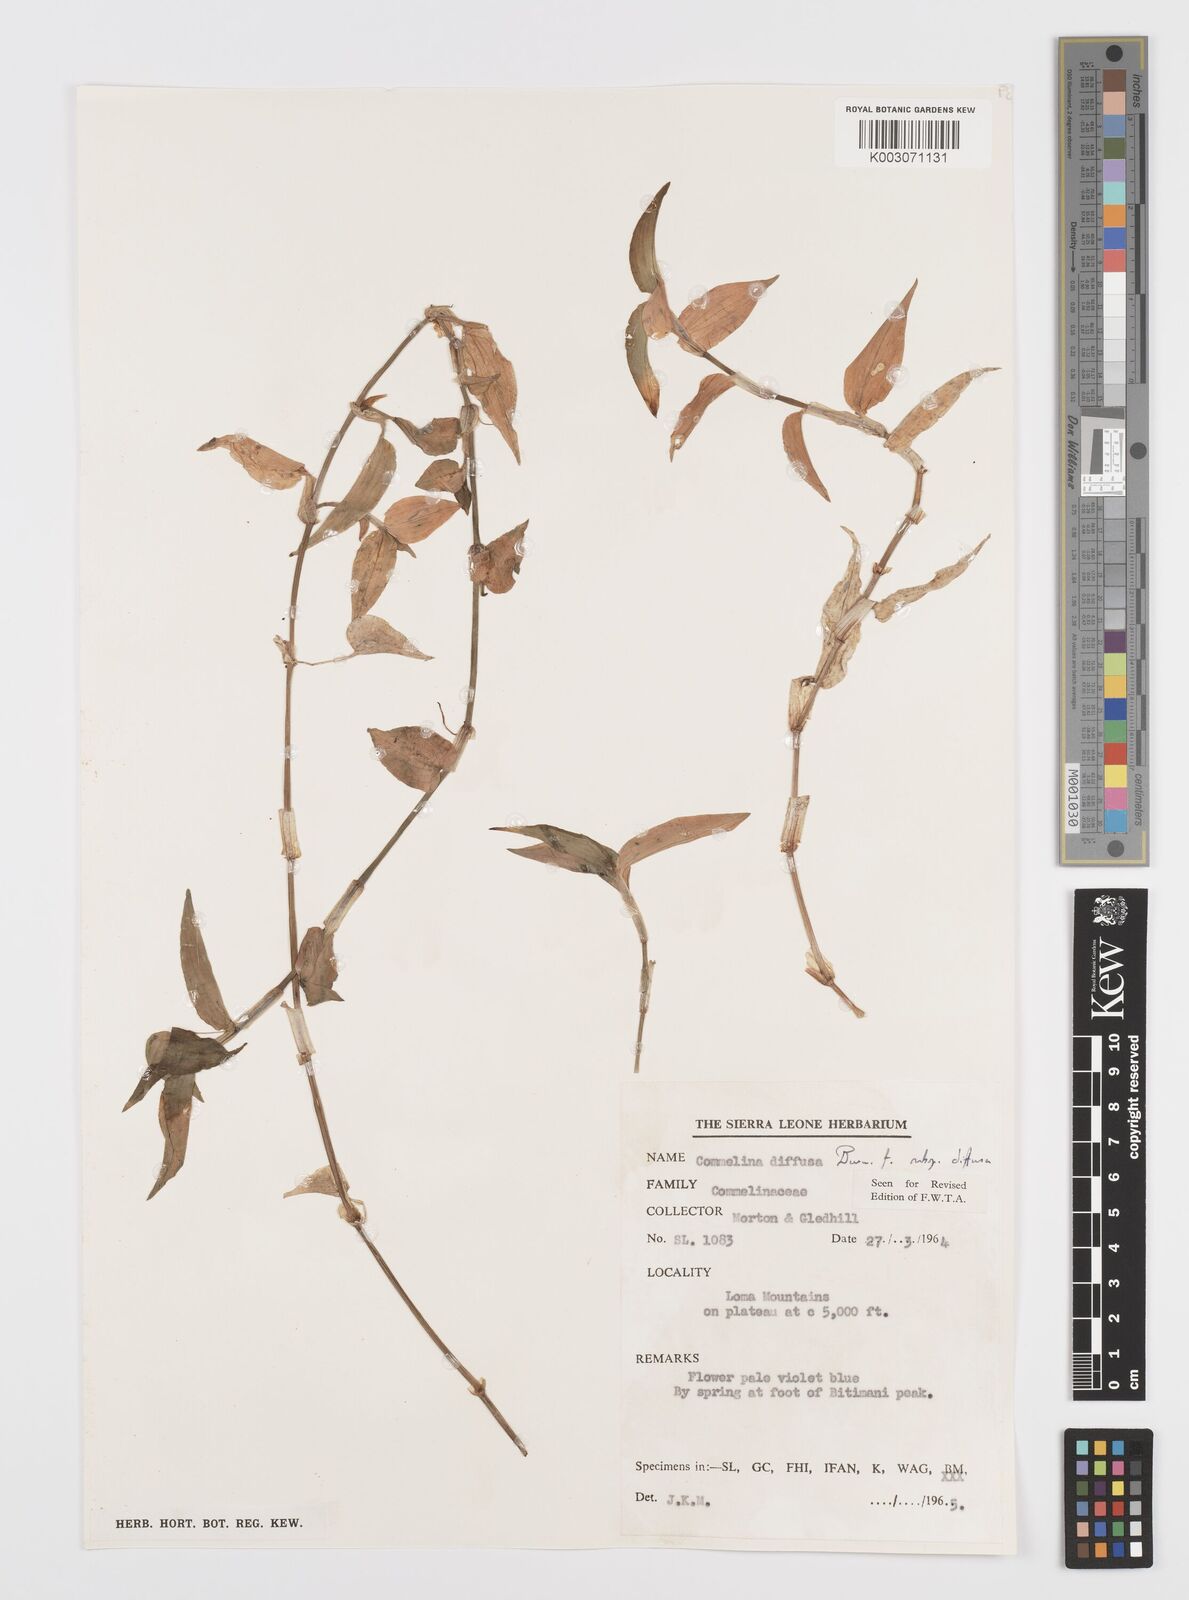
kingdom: Plantae
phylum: Tracheophyta
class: Liliopsida
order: Commelinales
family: Commelinaceae
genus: Commelina
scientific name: Commelina diffusa
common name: Climbing dayflower
